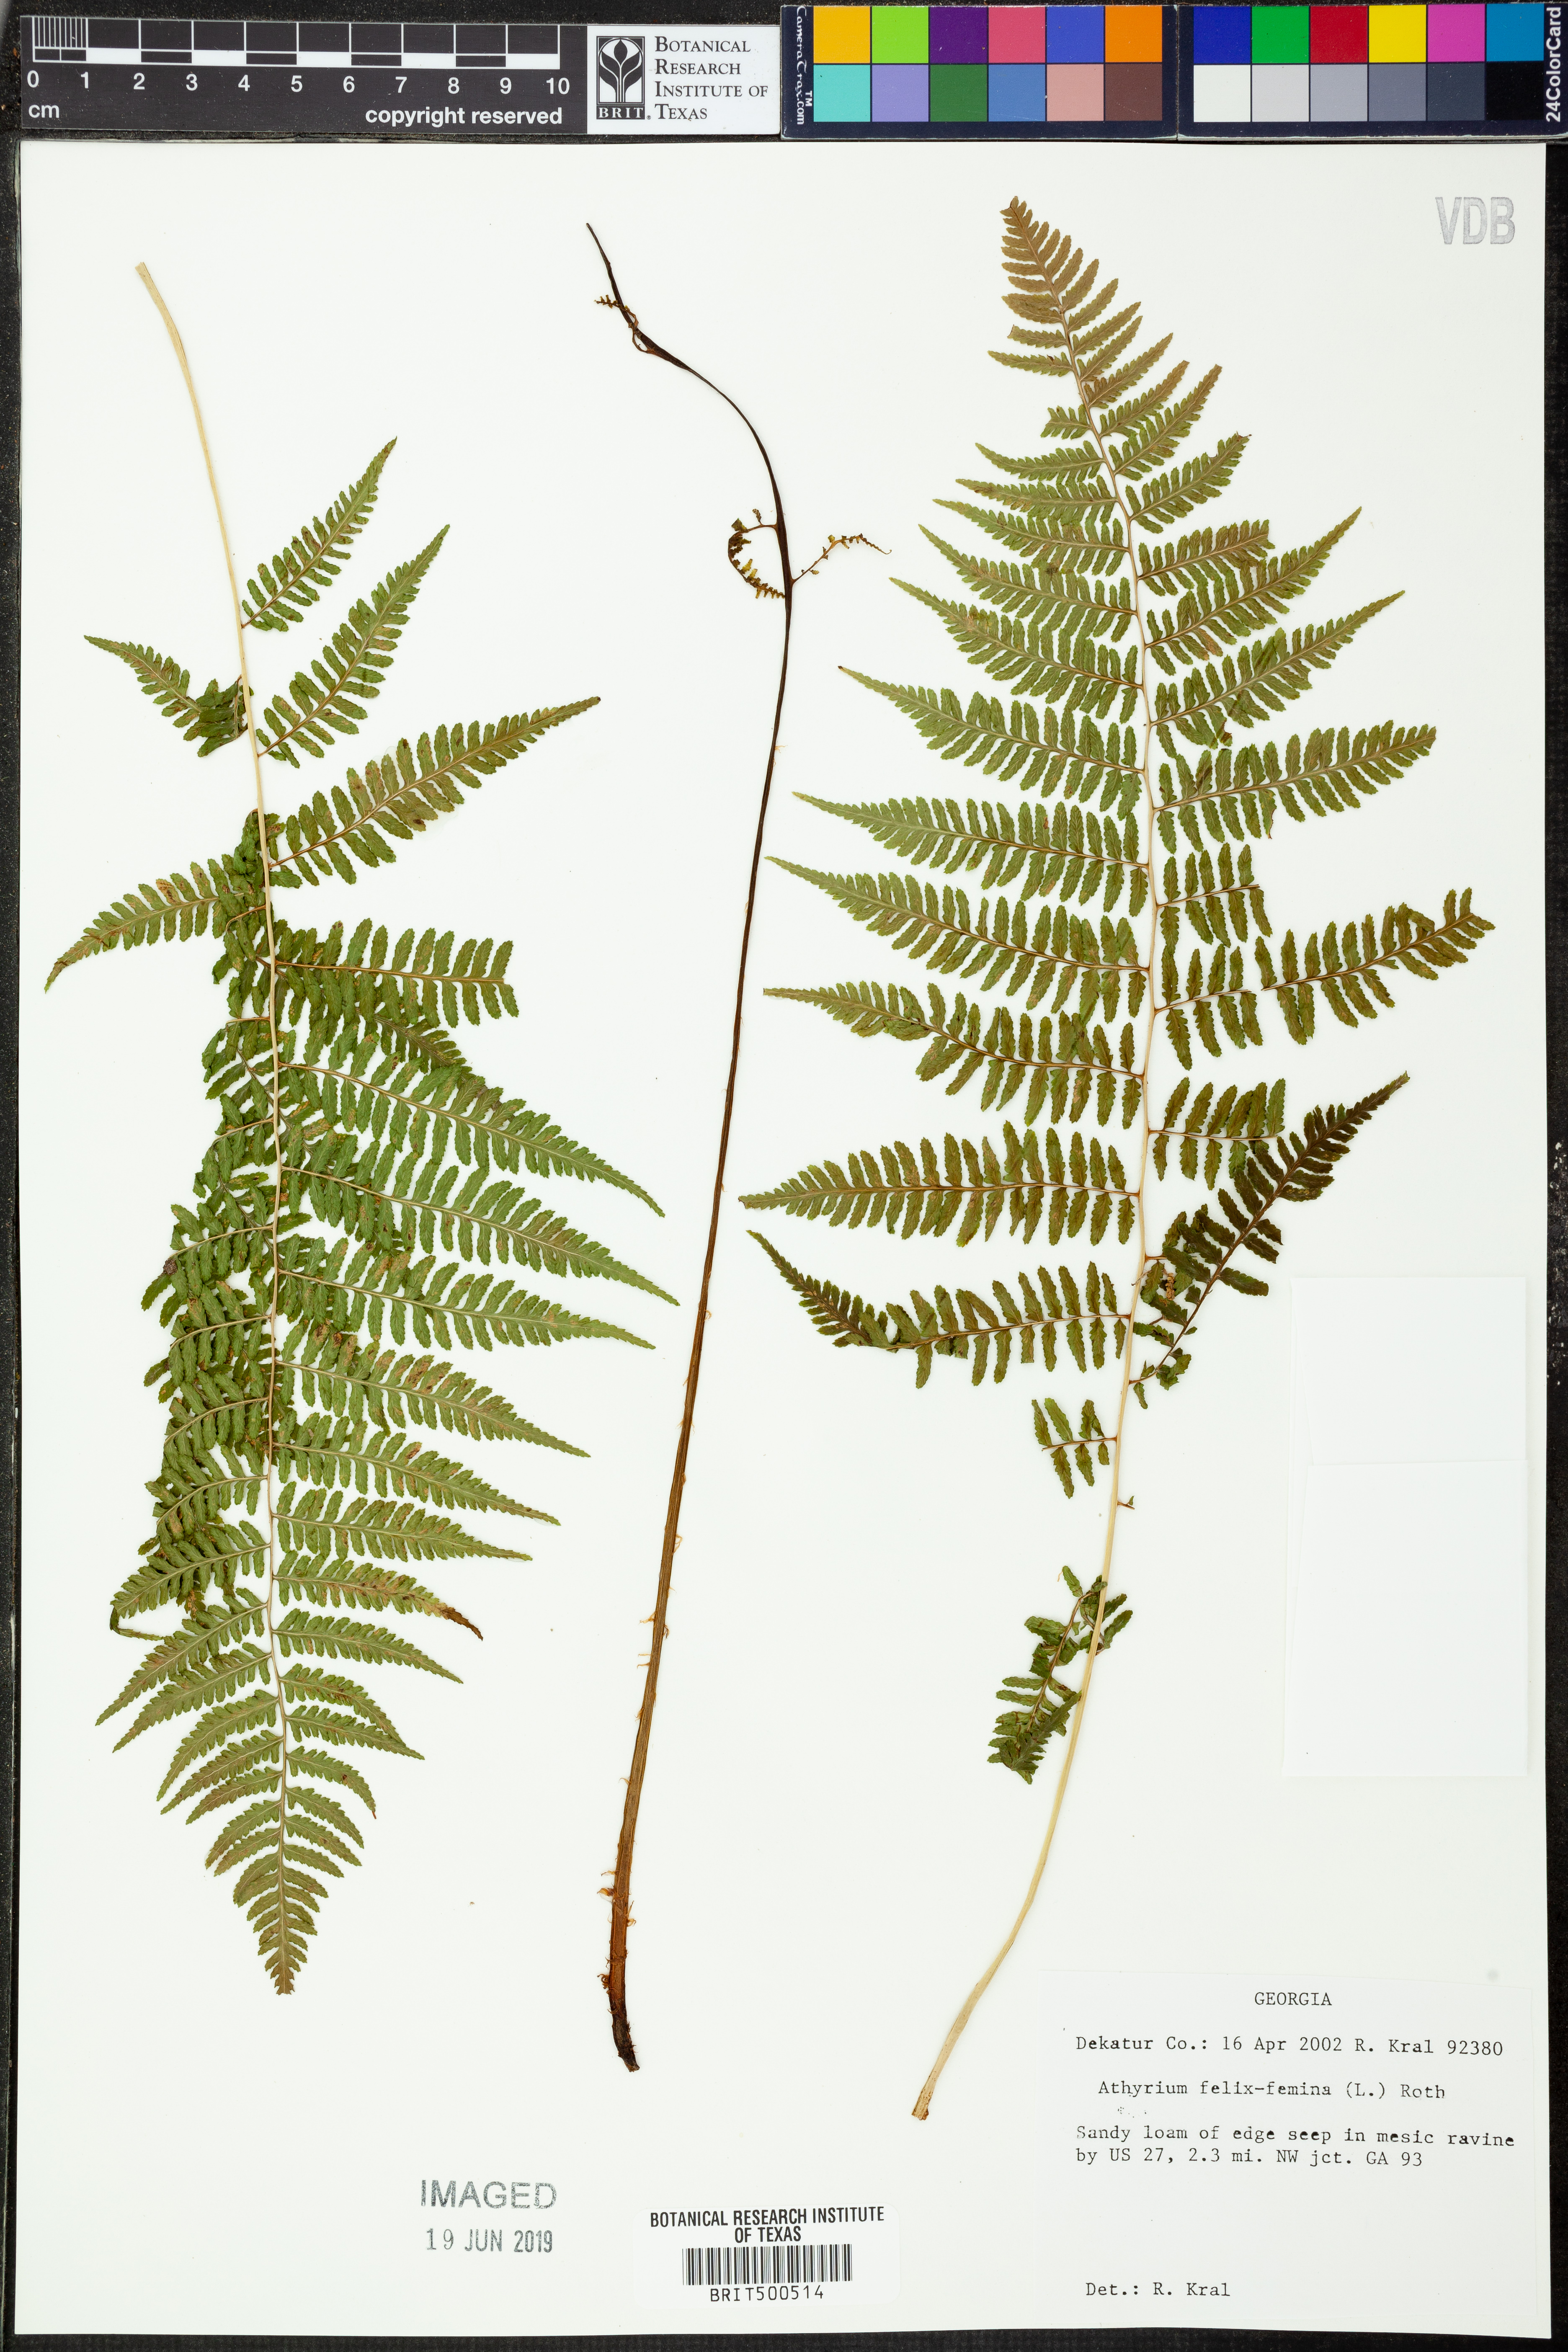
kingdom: Plantae
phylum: Tracheophyta
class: Polypodiopsida
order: Polypodiales
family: Athyriaceae
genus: Athyrium
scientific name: Athyrium filix-femina
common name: Lady fern
